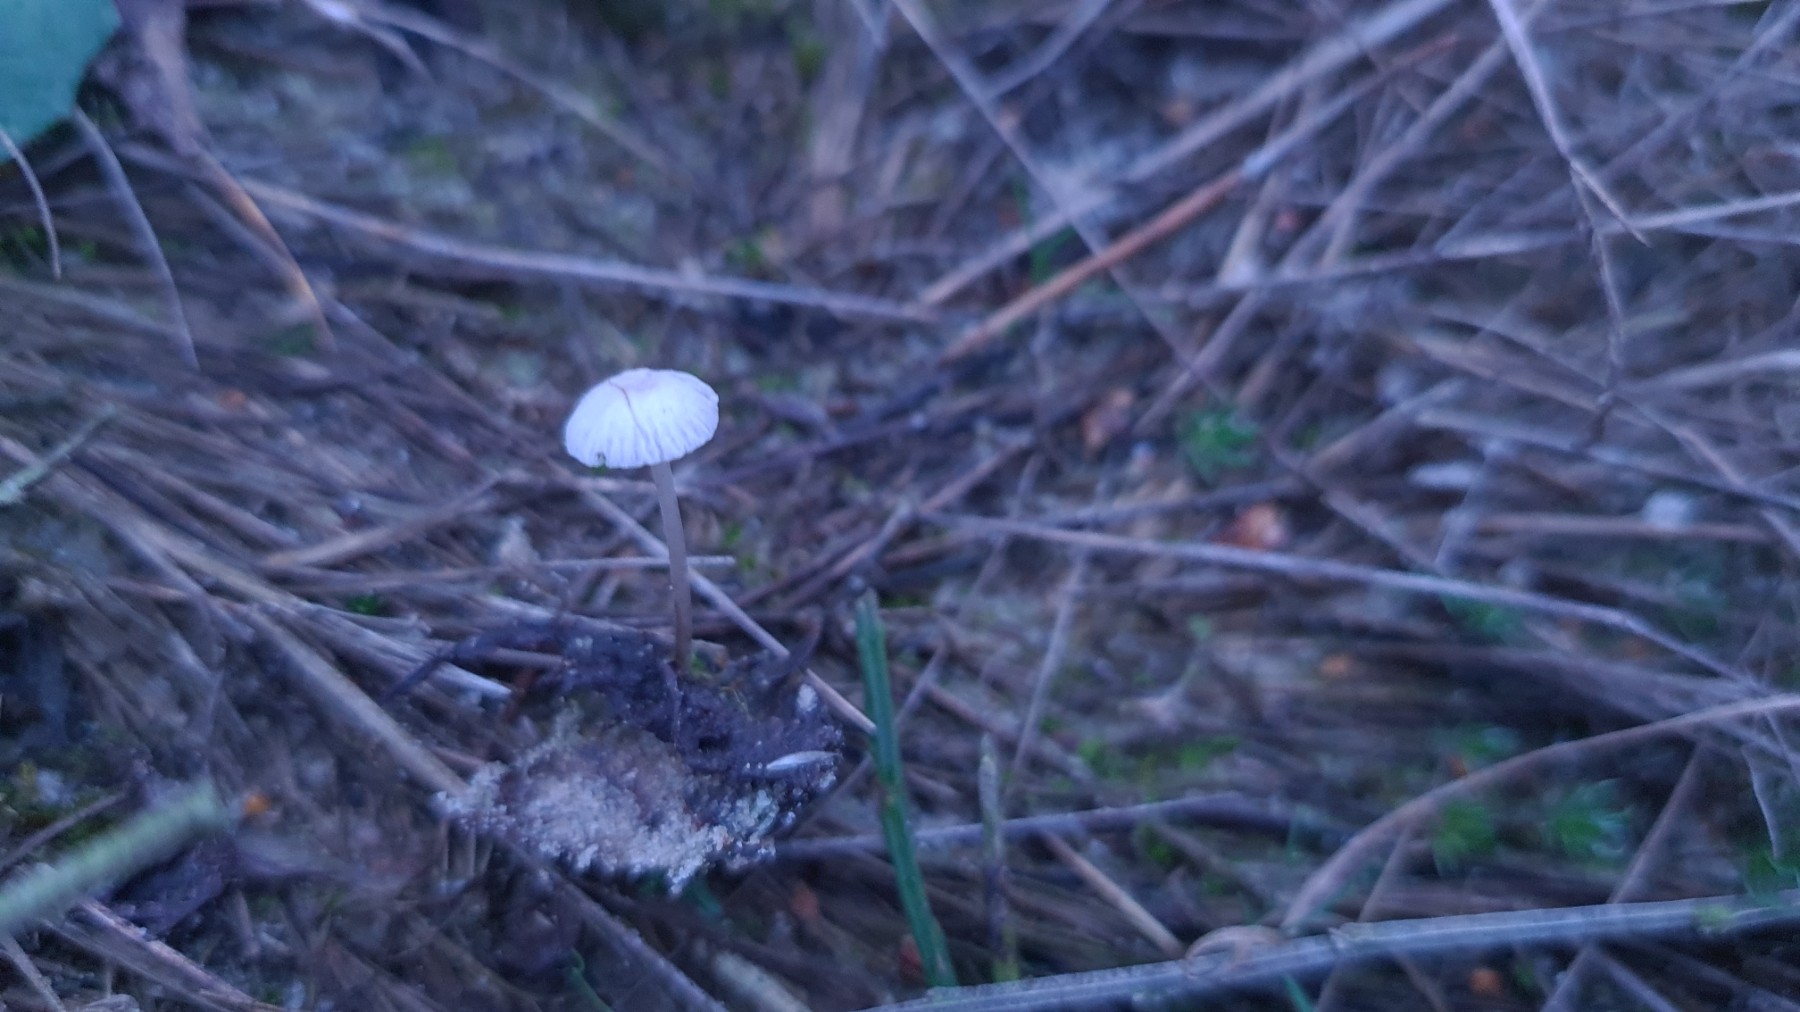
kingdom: Fungi
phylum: Basidiomycota
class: Agaricomycetes
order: Agaricales
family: Mycenaceae
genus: Mycena
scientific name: Mycena cinerella
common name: mel-huesvamp
